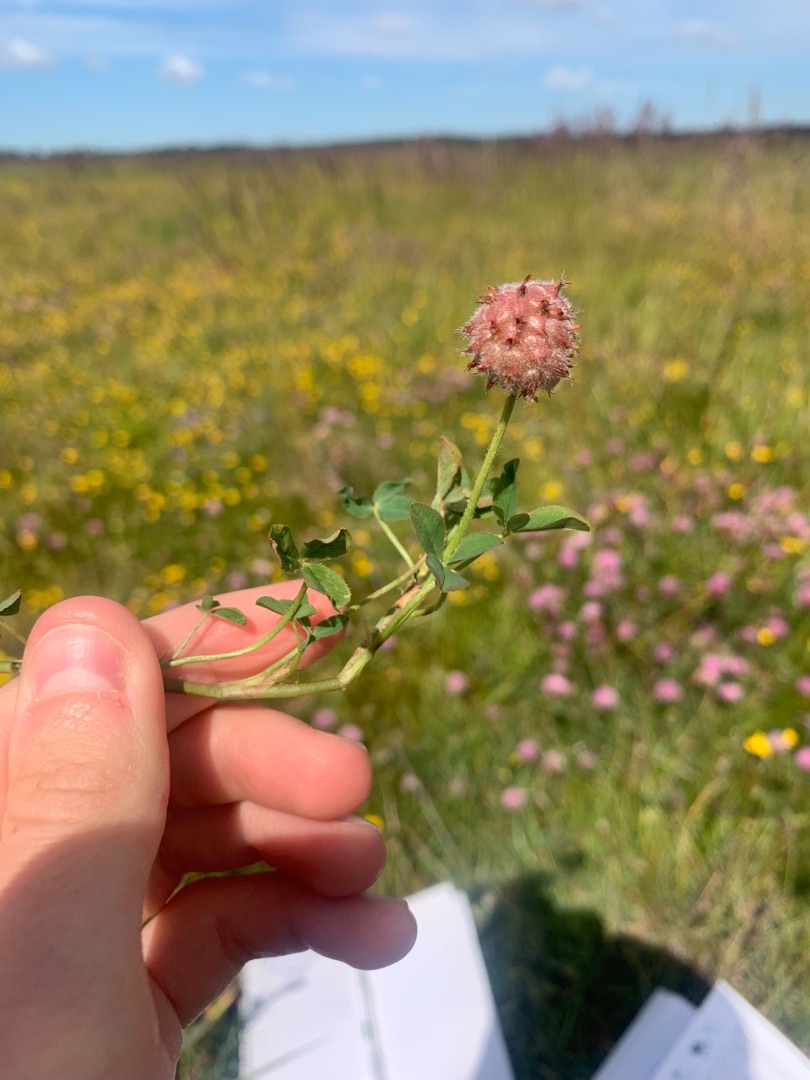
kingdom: Plantae
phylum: Tracheophyta
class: Magnoliopsida
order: Fabales
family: Fabaceae
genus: Trifolium
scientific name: Trifolium fragiferum
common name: Jordbær-kløver
